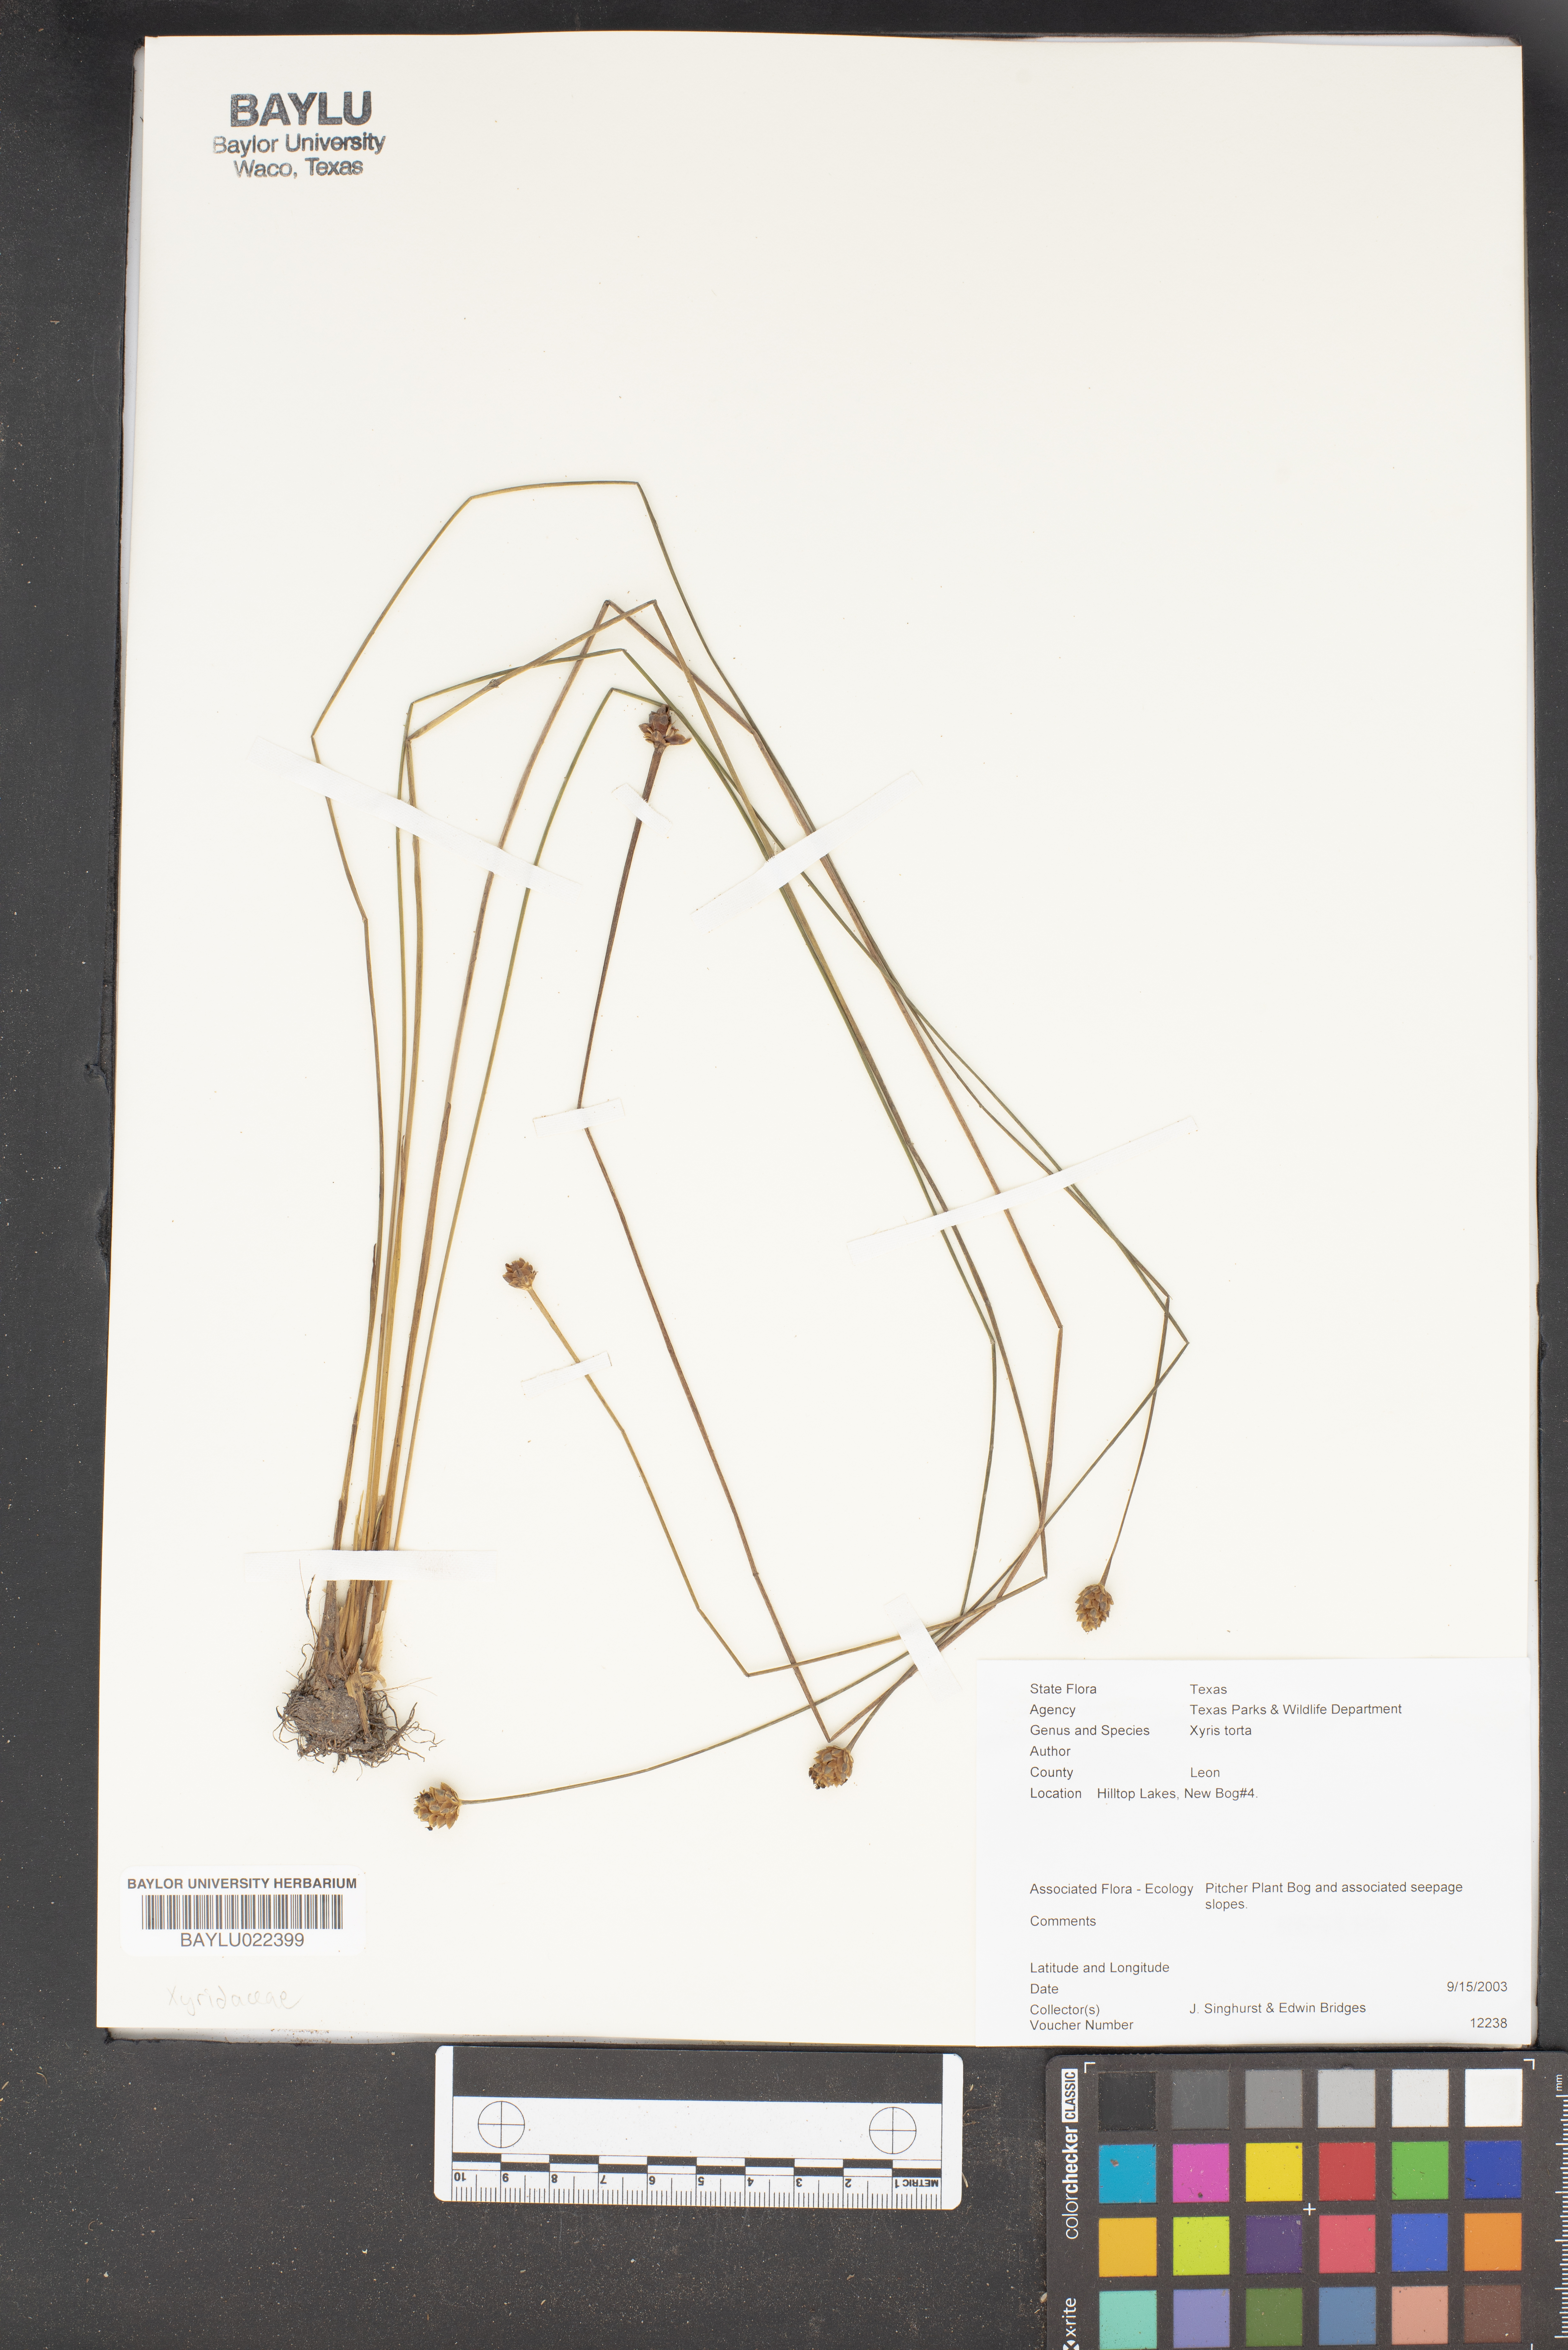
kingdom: Plantae
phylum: Tracheophyta
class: Liliopsida
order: Poales
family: Xyridaceae
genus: Xyris
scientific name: Xyris torta
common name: Common yelloweyed grass
